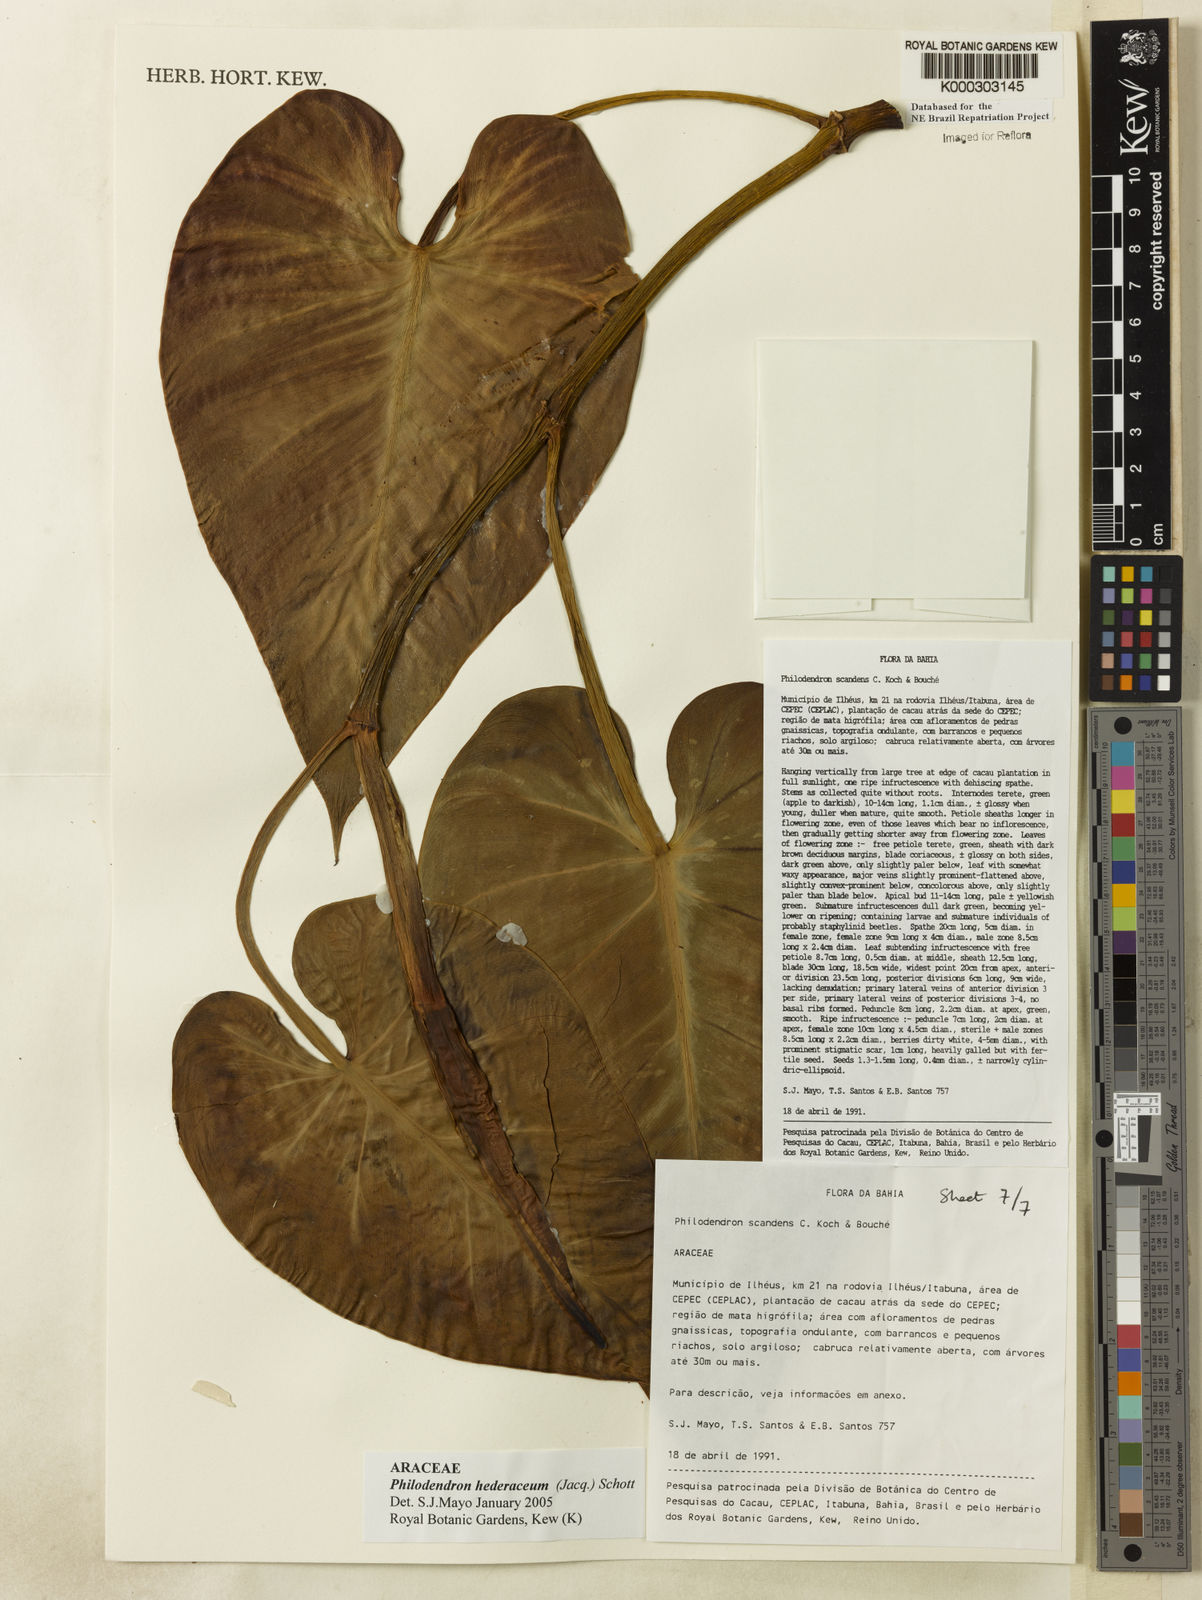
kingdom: Plantae
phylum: Tracheophyta
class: Liliopsida
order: Alismatales
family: Araceae
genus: Philodendron
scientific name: Philodendron hederaceum
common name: Vilevine
